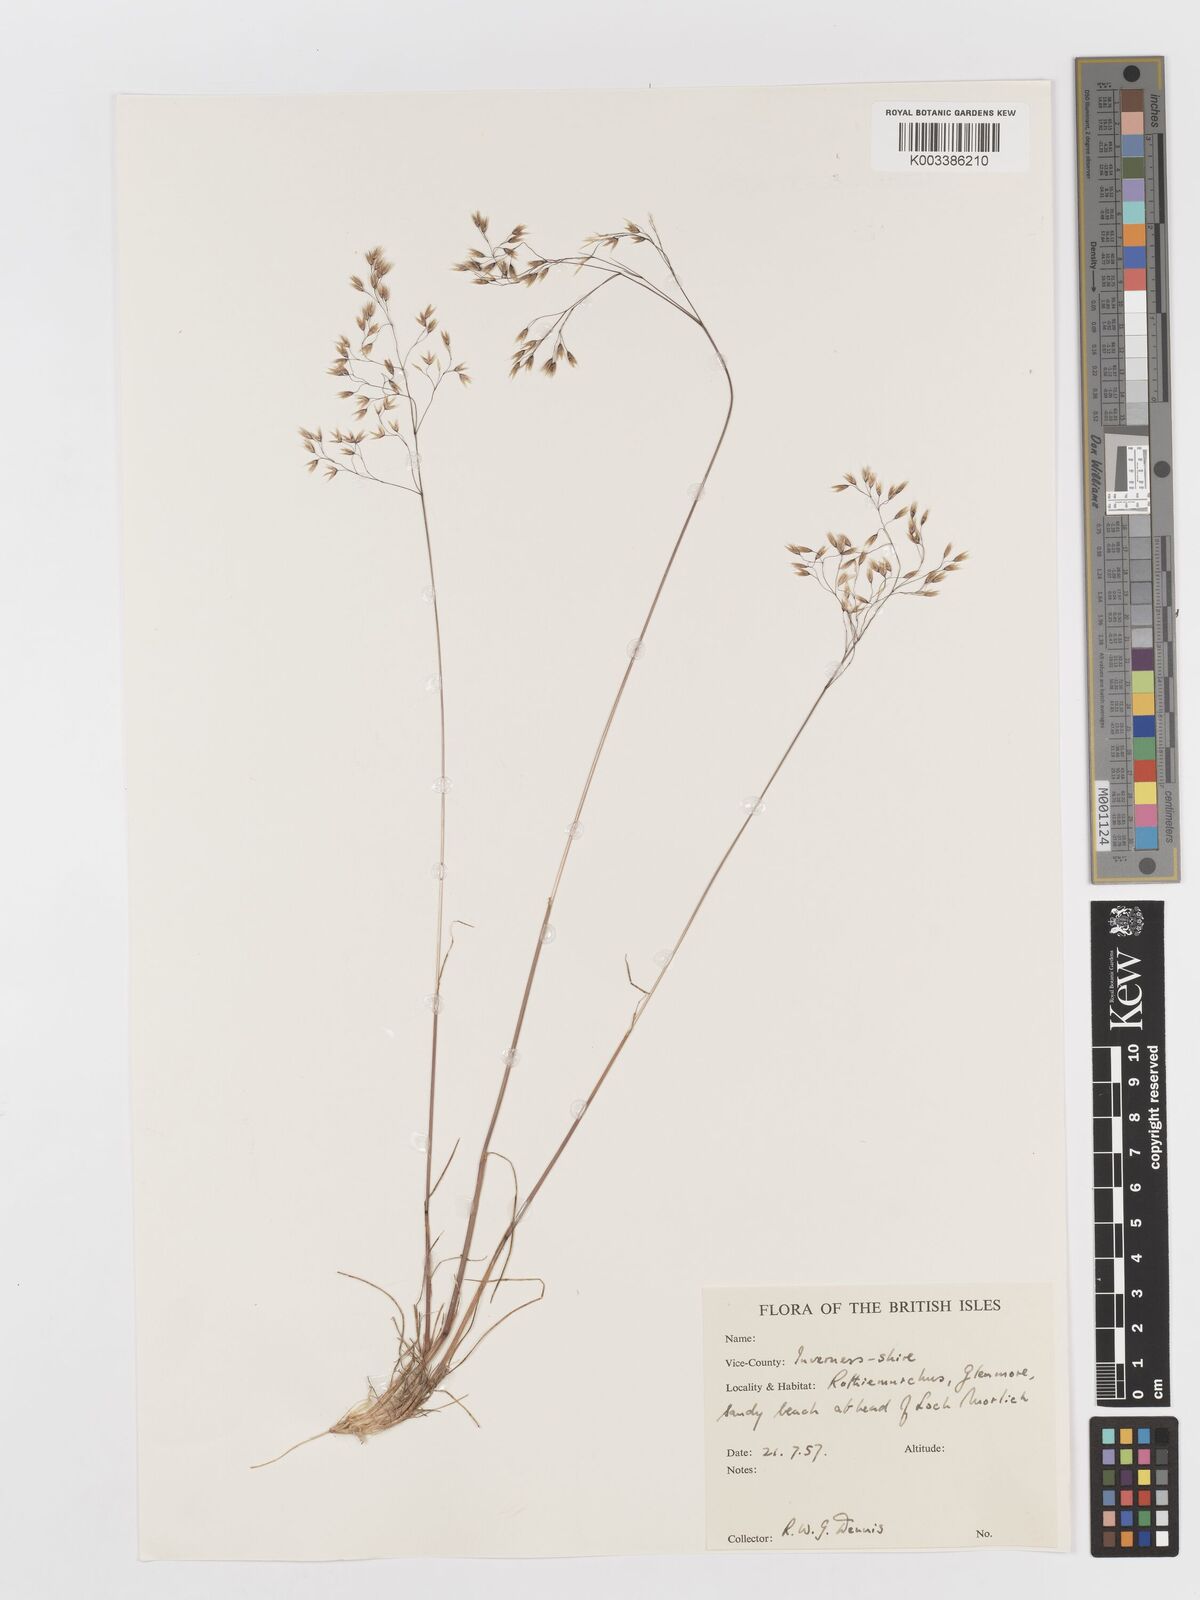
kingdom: Plantae
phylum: Tracheophyta
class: Liliopsida
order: Poales
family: Poaceae
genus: Deschampsia
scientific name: Deschampsia
